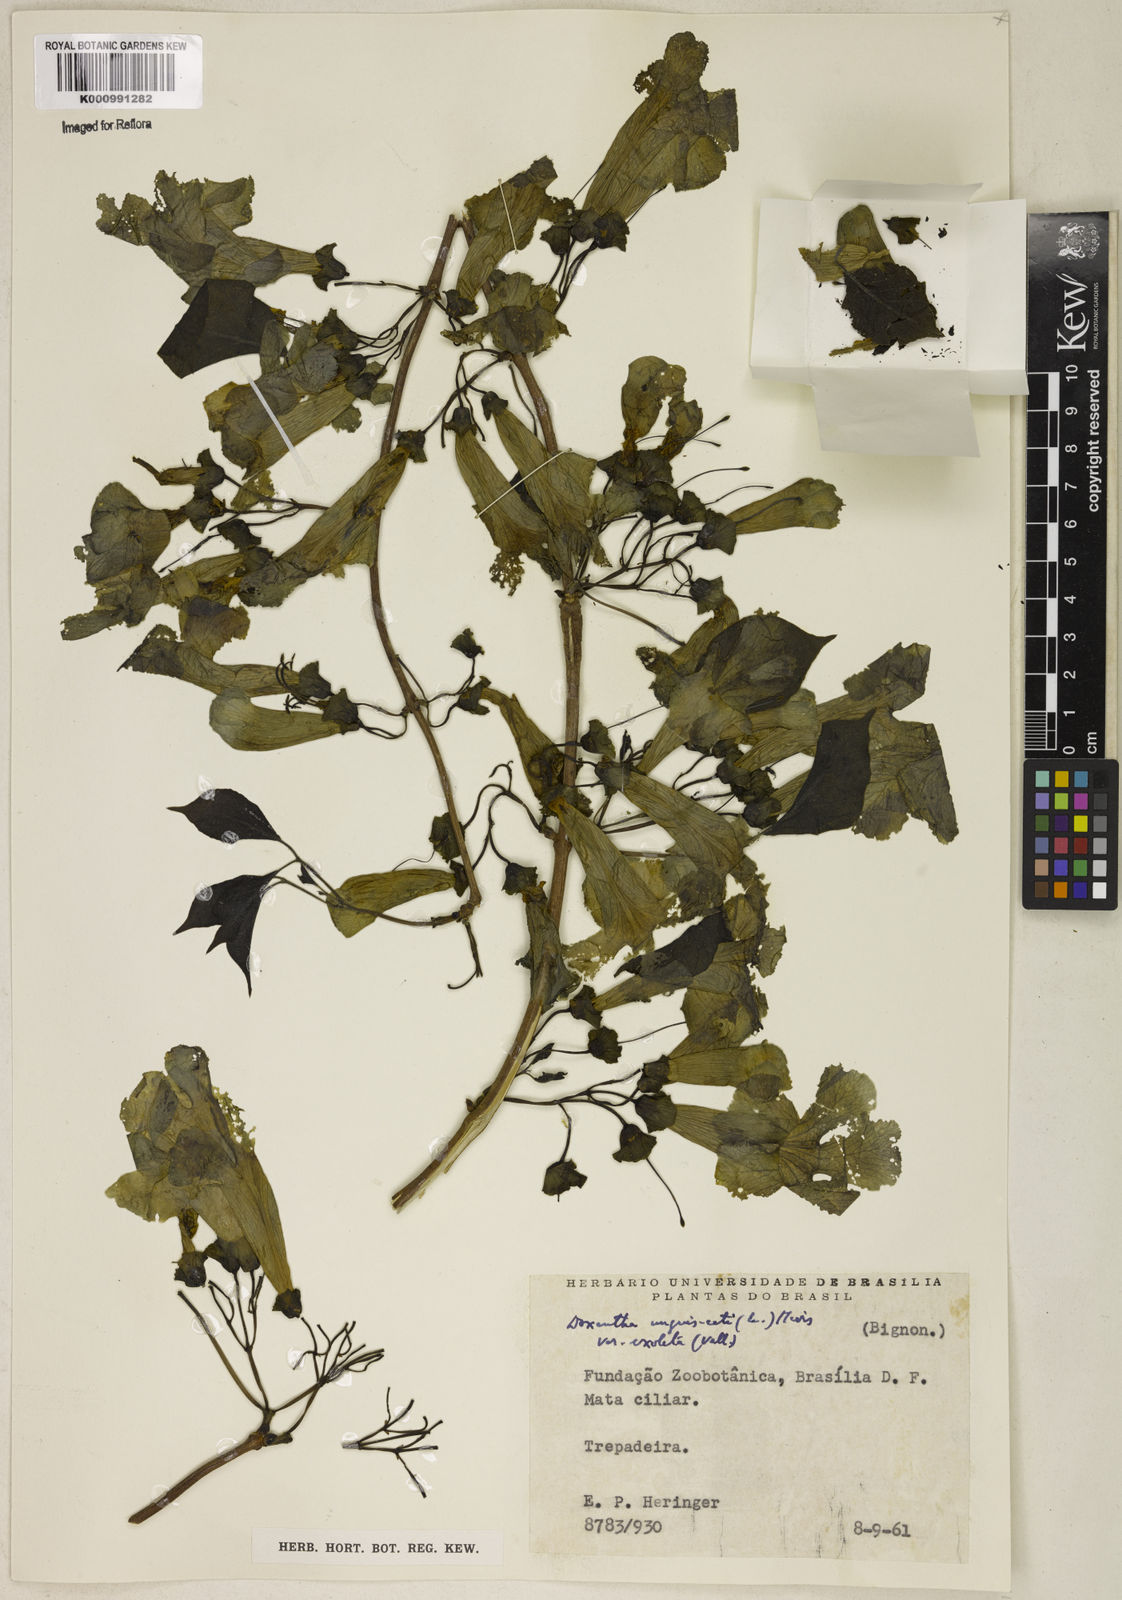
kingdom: Plantae
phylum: Tracheophyta
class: Magnoliopsida
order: Lamiales
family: Bignoniaceae
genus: Dolichandra
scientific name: Dolichandra unguis-cati
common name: Catclaw vine
